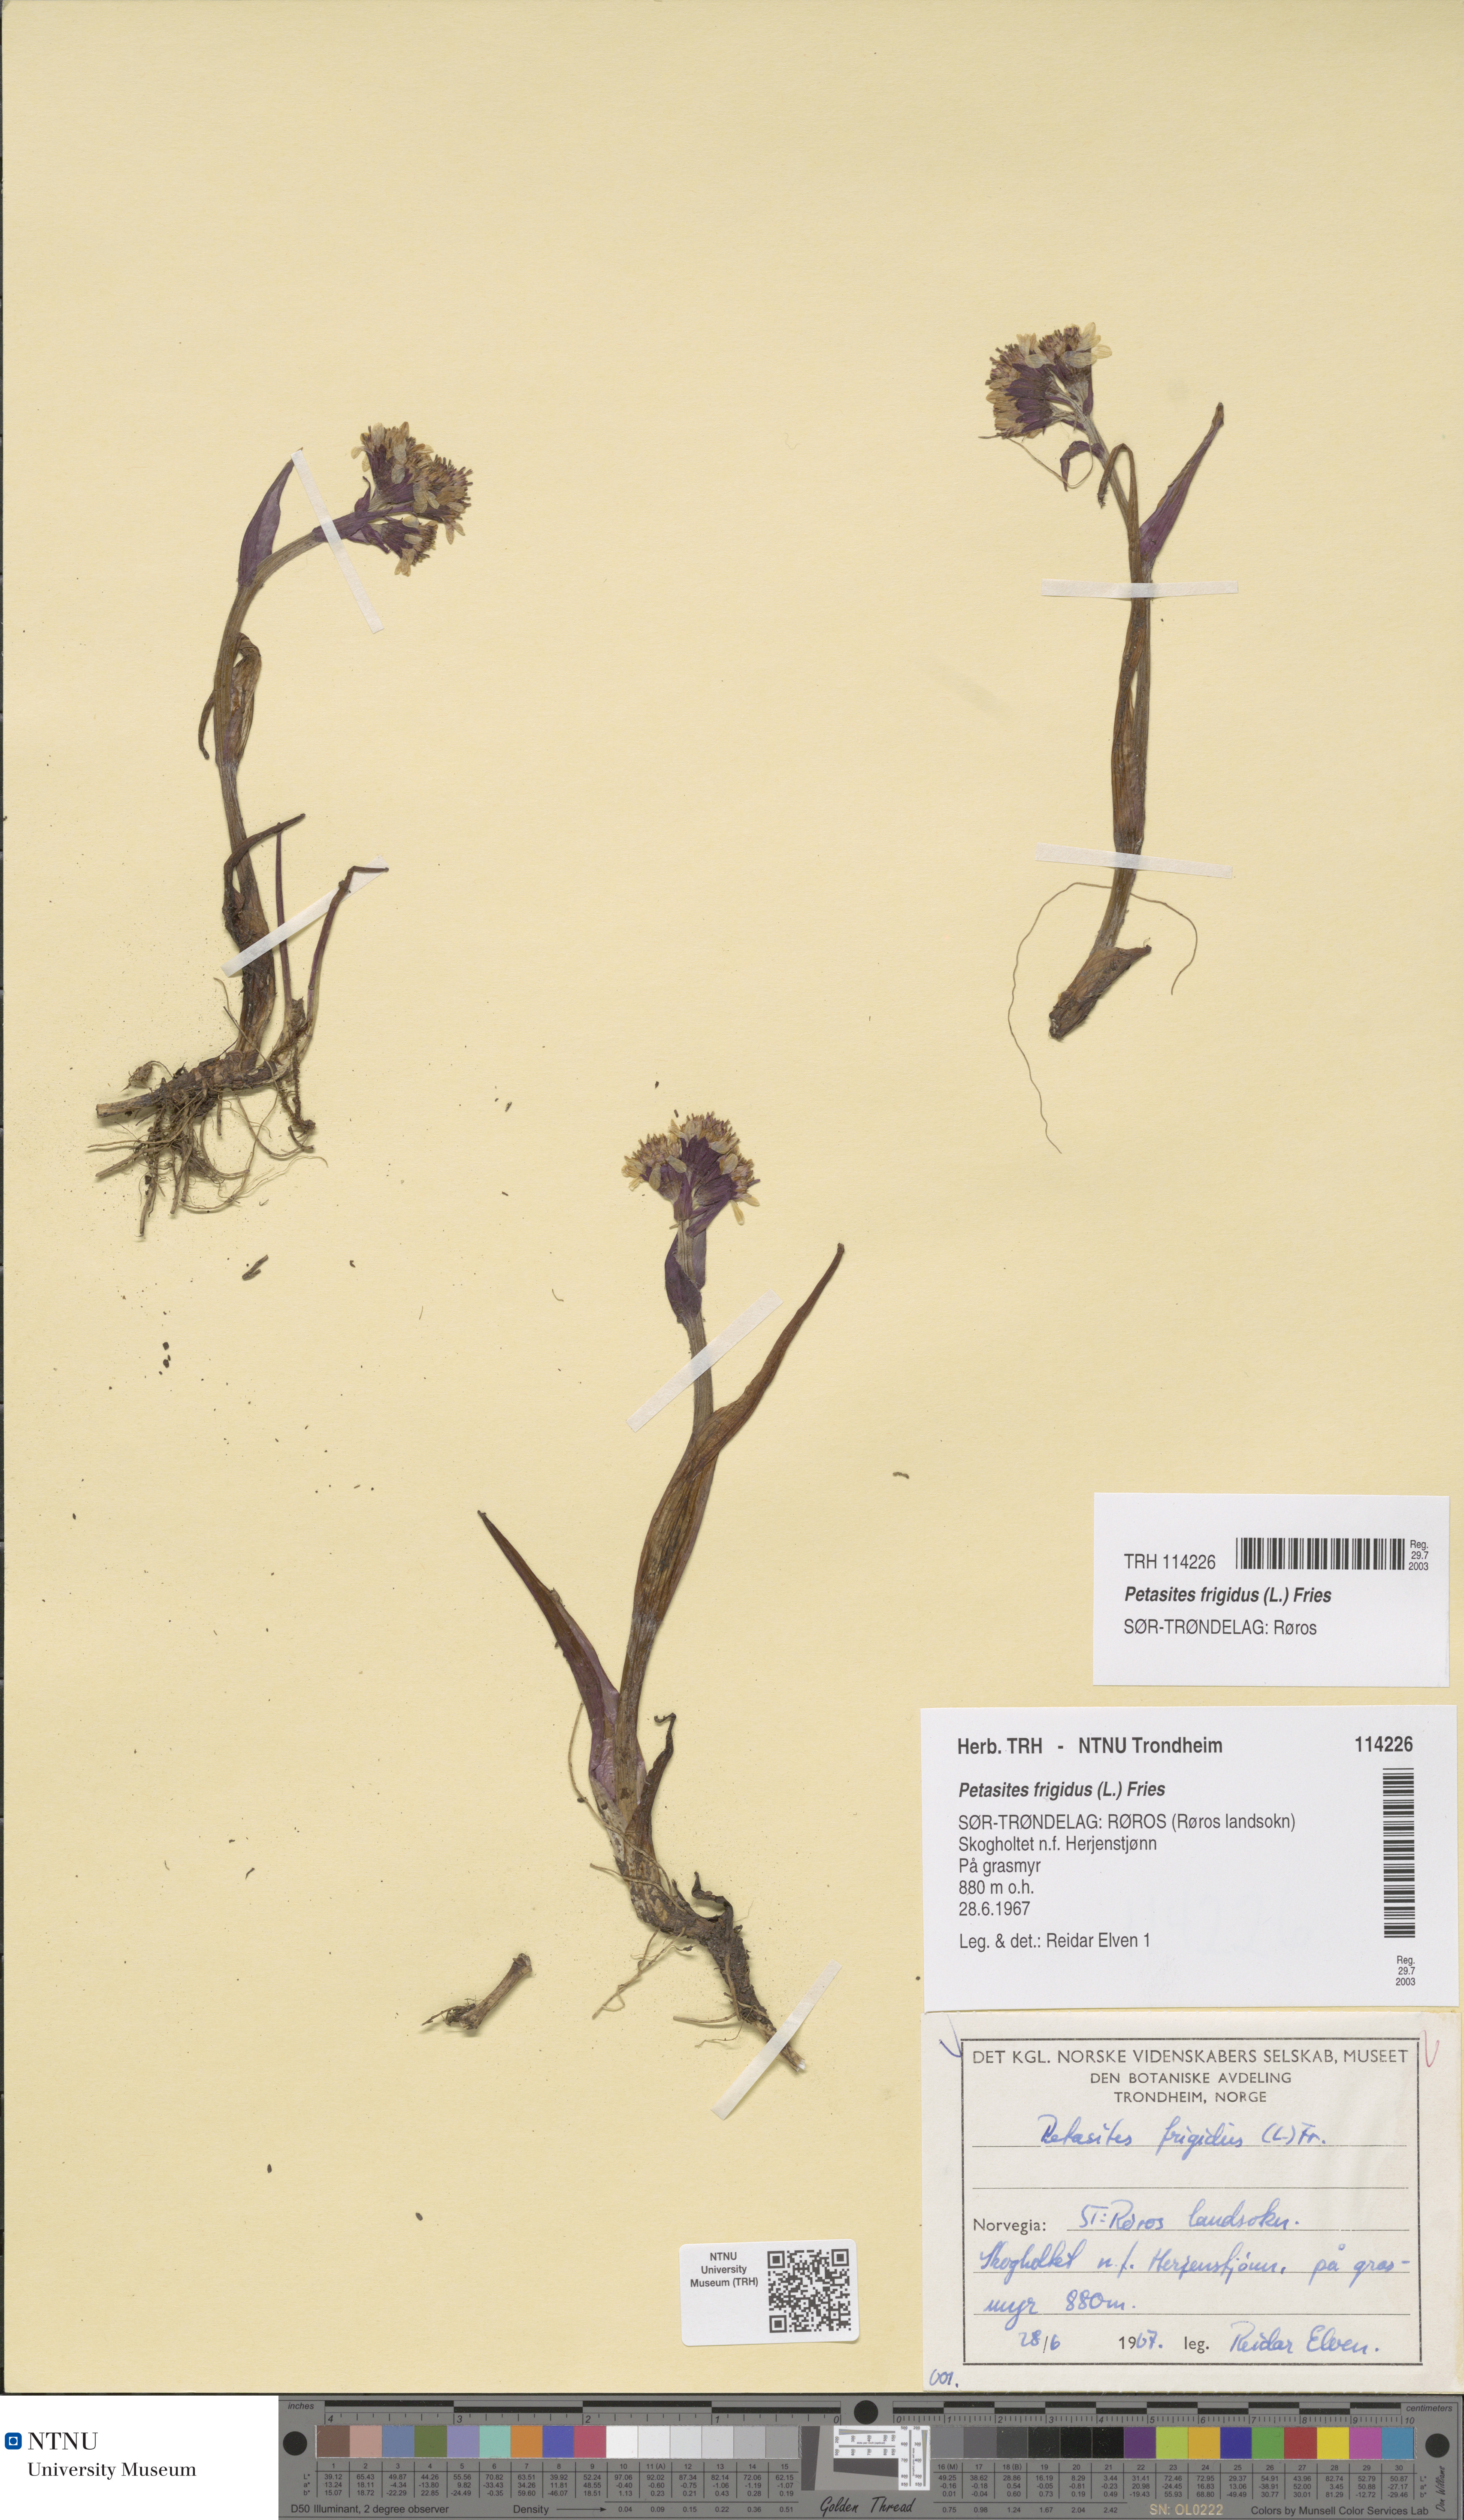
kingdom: Plantae
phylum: Tracheophyta
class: Magnoliopsida
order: Asterales
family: Asteraceae
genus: Petasites
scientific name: Petasites frigidus
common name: Arctic butterbur
